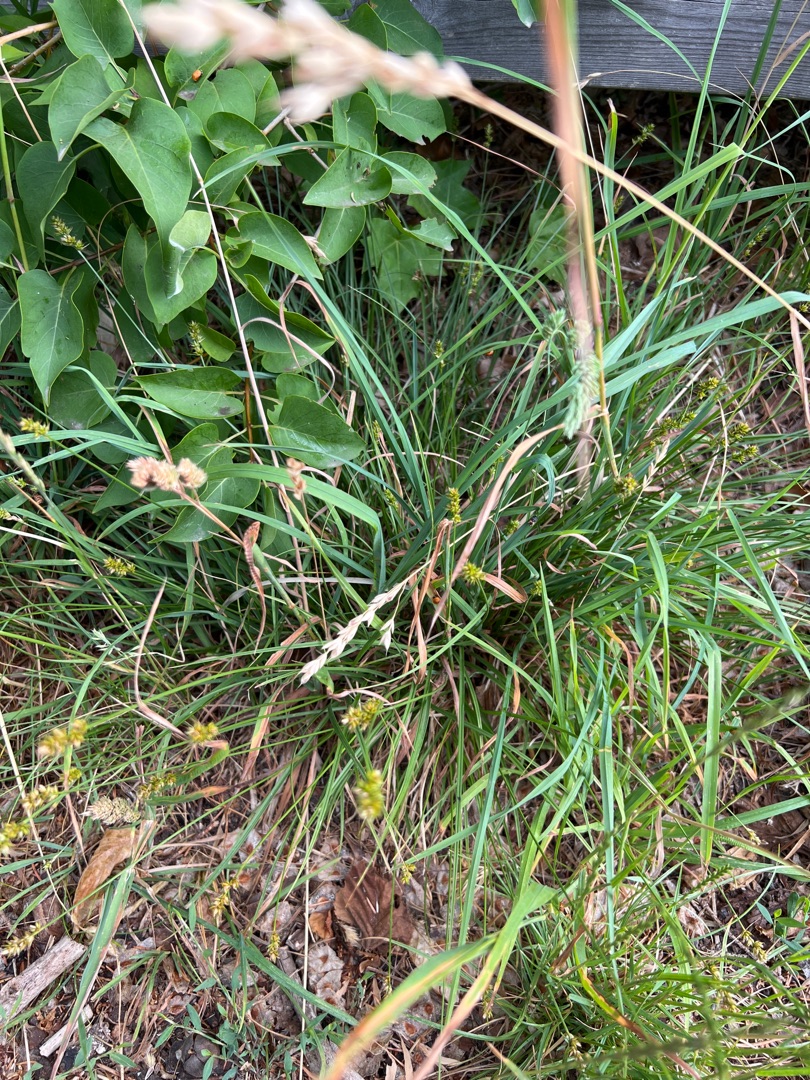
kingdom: Plantae
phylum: Tracheophyta
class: Liliopsida
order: Poales
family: Cyperaceae
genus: Carex
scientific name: Carex pairae
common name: Pigget star
